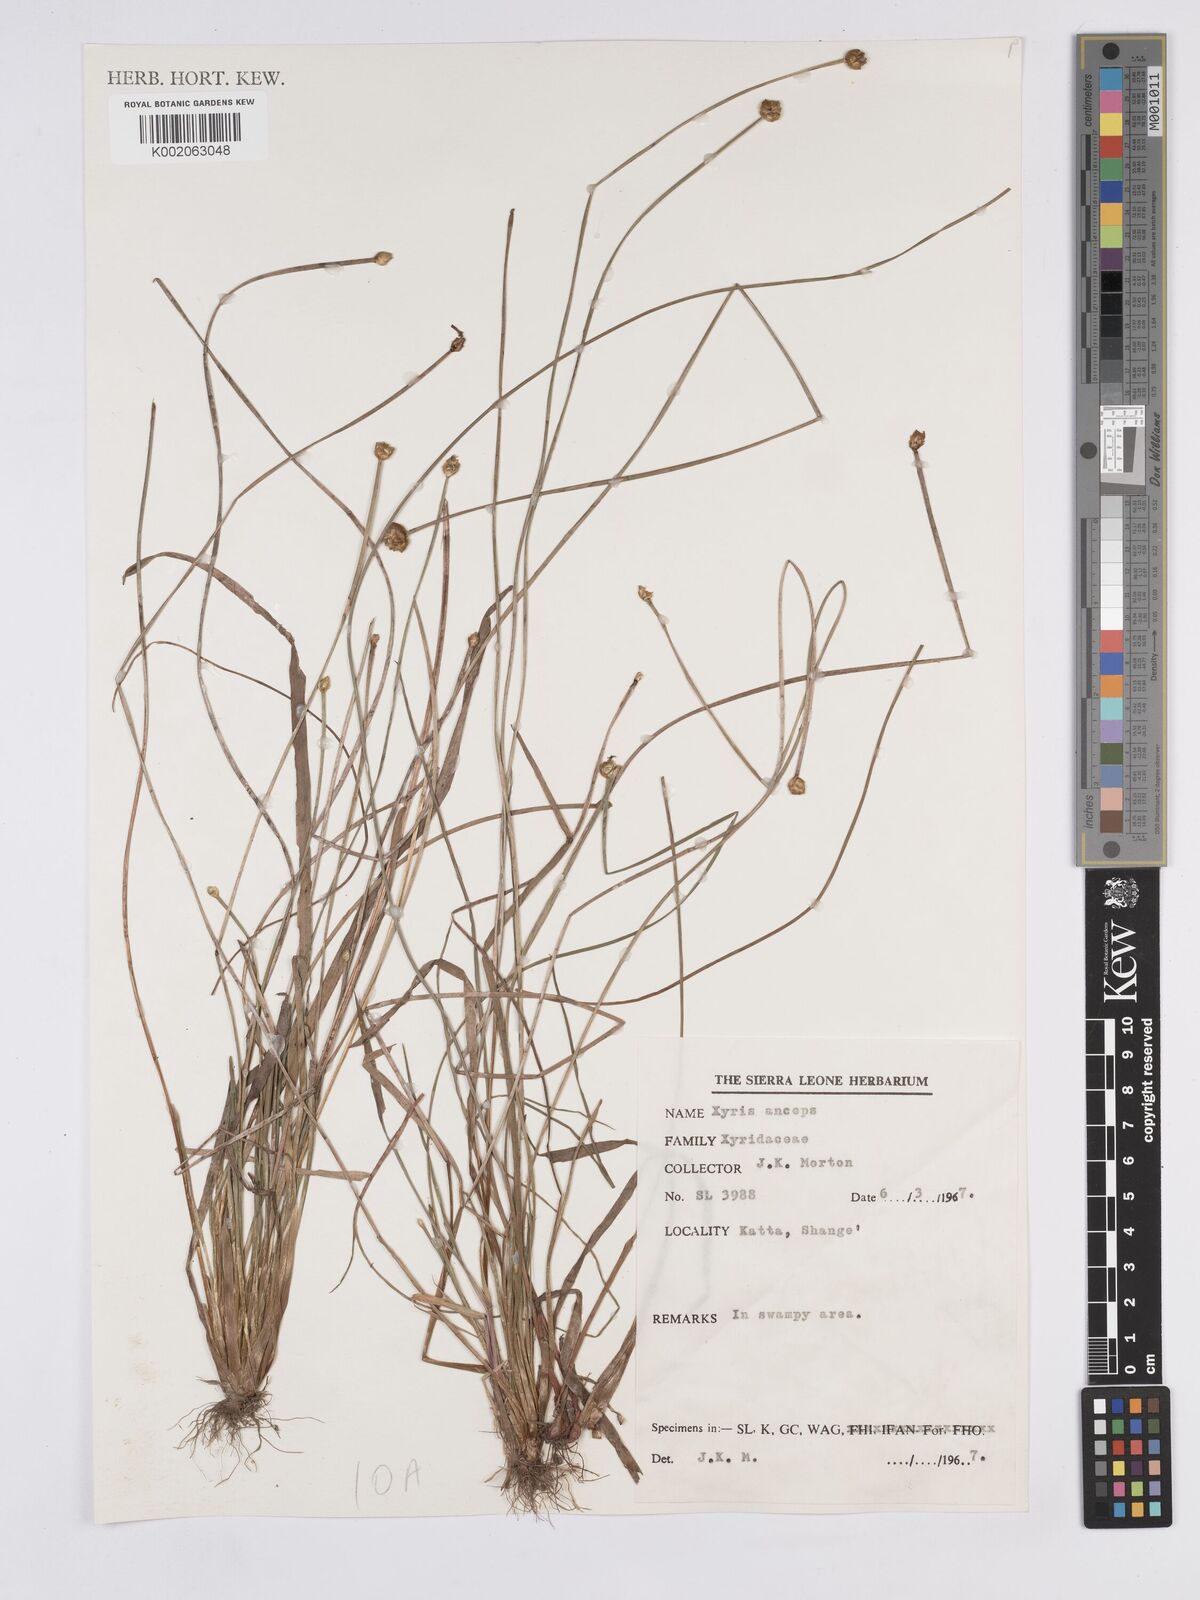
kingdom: Plantae
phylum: Tracheophyta
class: Liliopsida
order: Poales
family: Xyridaceae
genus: Xyris
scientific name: Xyris anceps
